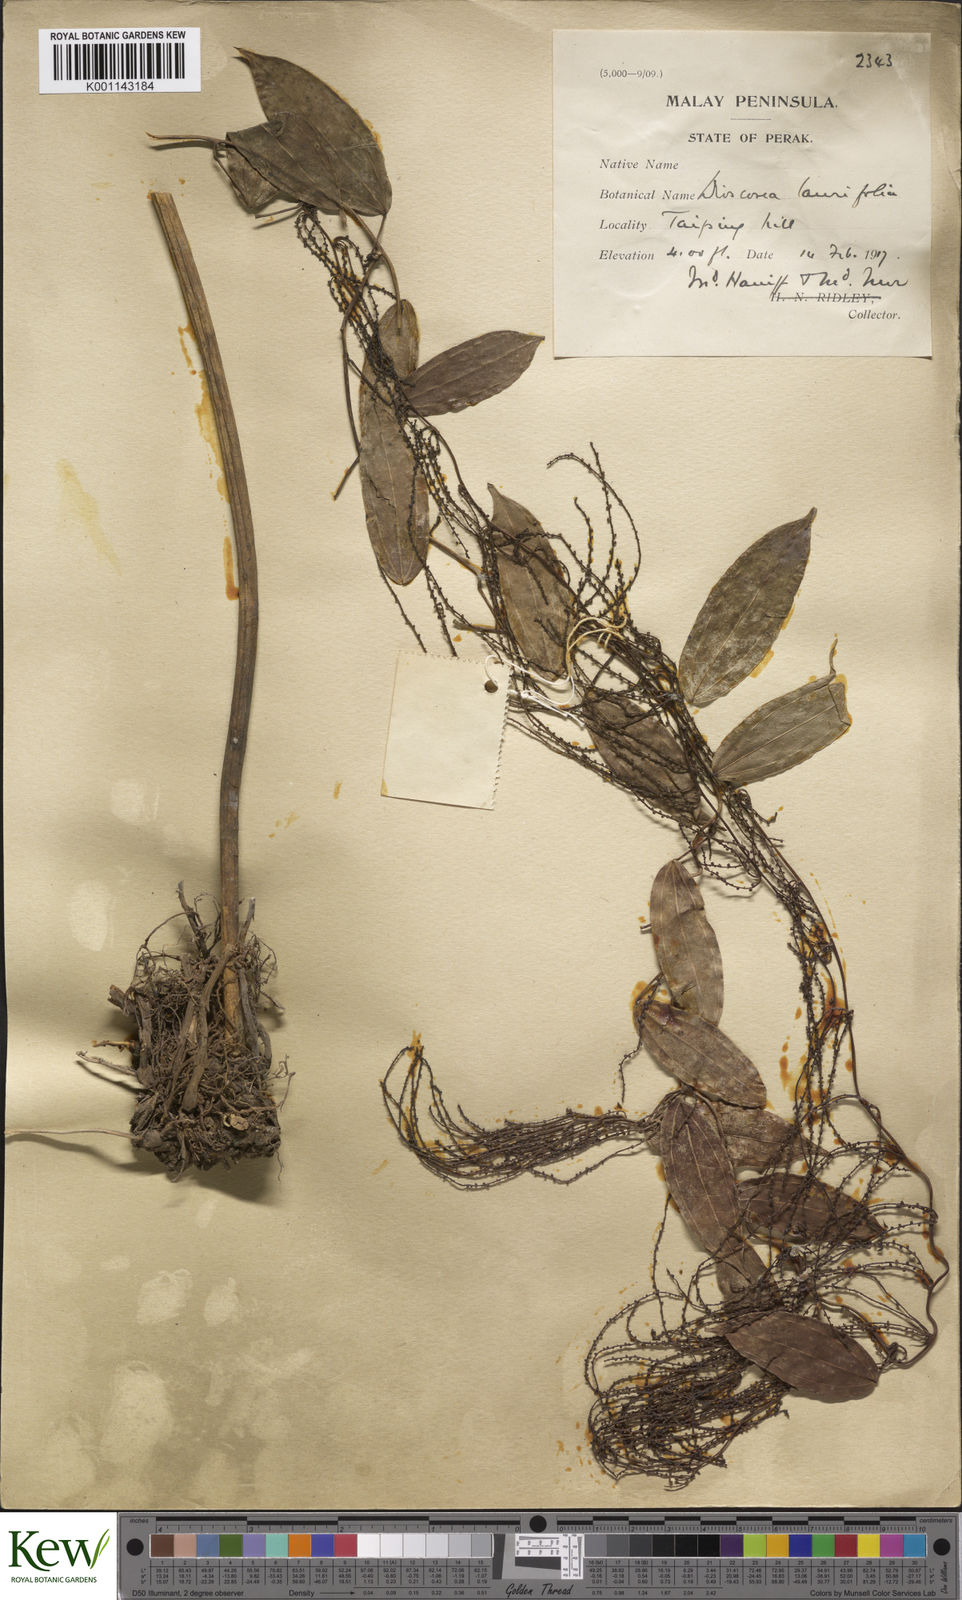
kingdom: Plantae
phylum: Tracheophyta
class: Liliopsida
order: Dioscoreales
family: Dioscoreaceae
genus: Dioscorea
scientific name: Dioscorea laurifolia
